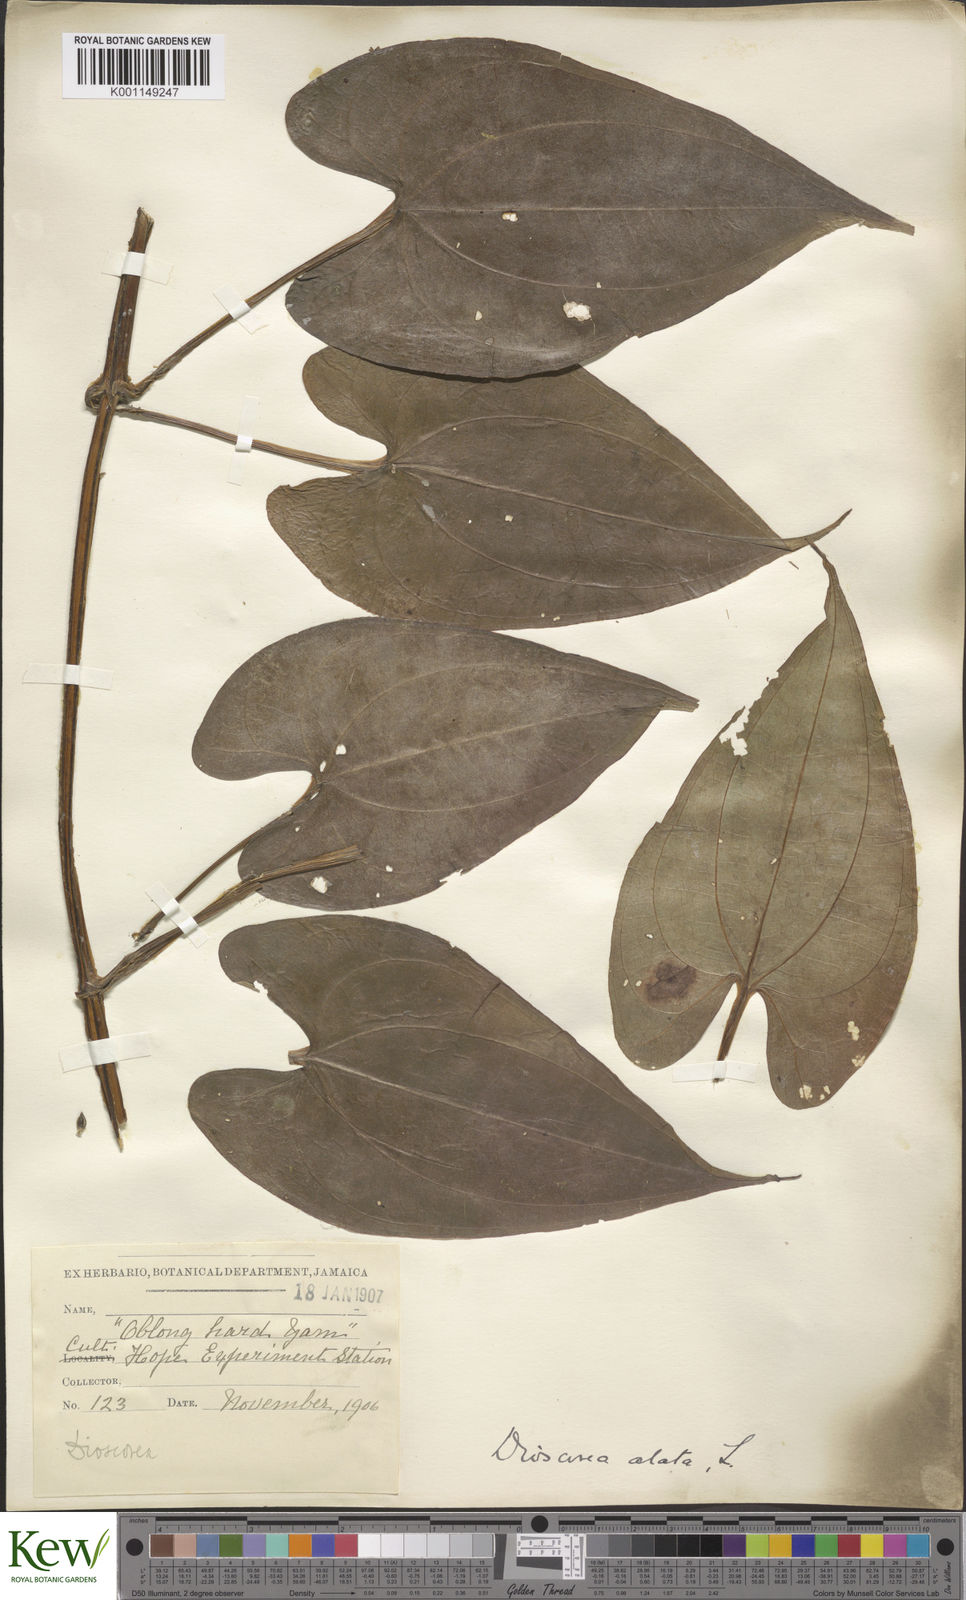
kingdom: Plantae
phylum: Tracheophyta
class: Liliopsida
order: Dioscoreales
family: Dioscoreaceae
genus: Dioscorea
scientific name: Dioscorea alata
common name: Water yam
